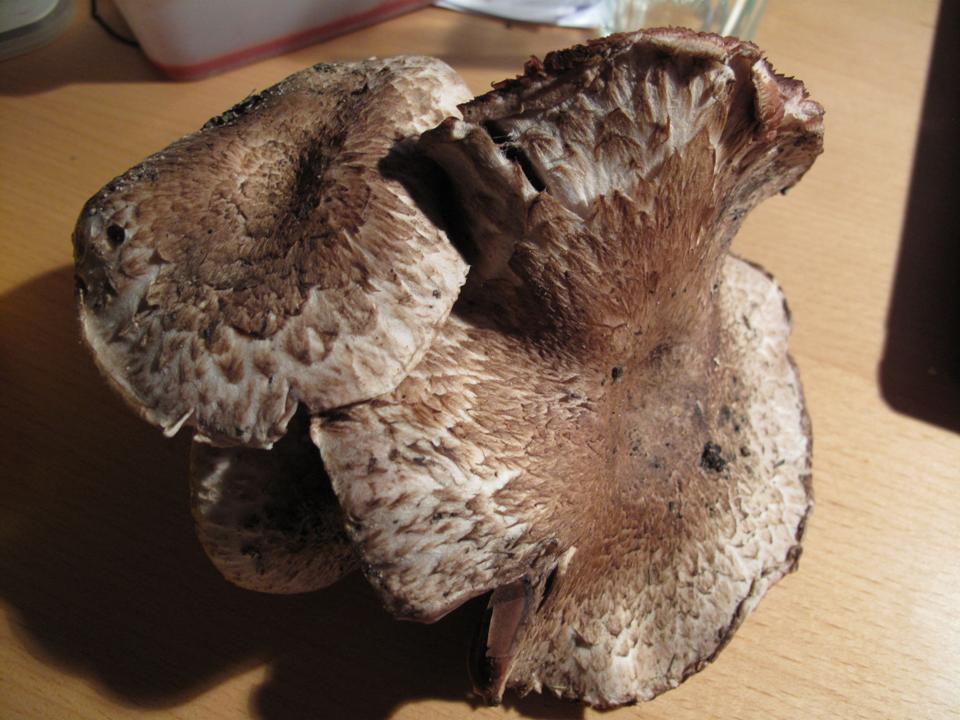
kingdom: Fungi
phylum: Basidiomycota
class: Agaricomycetes
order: Agaricales
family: Agaricaceae
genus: Agaricus
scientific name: Agaricus subperonatus
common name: knippe-champignon
